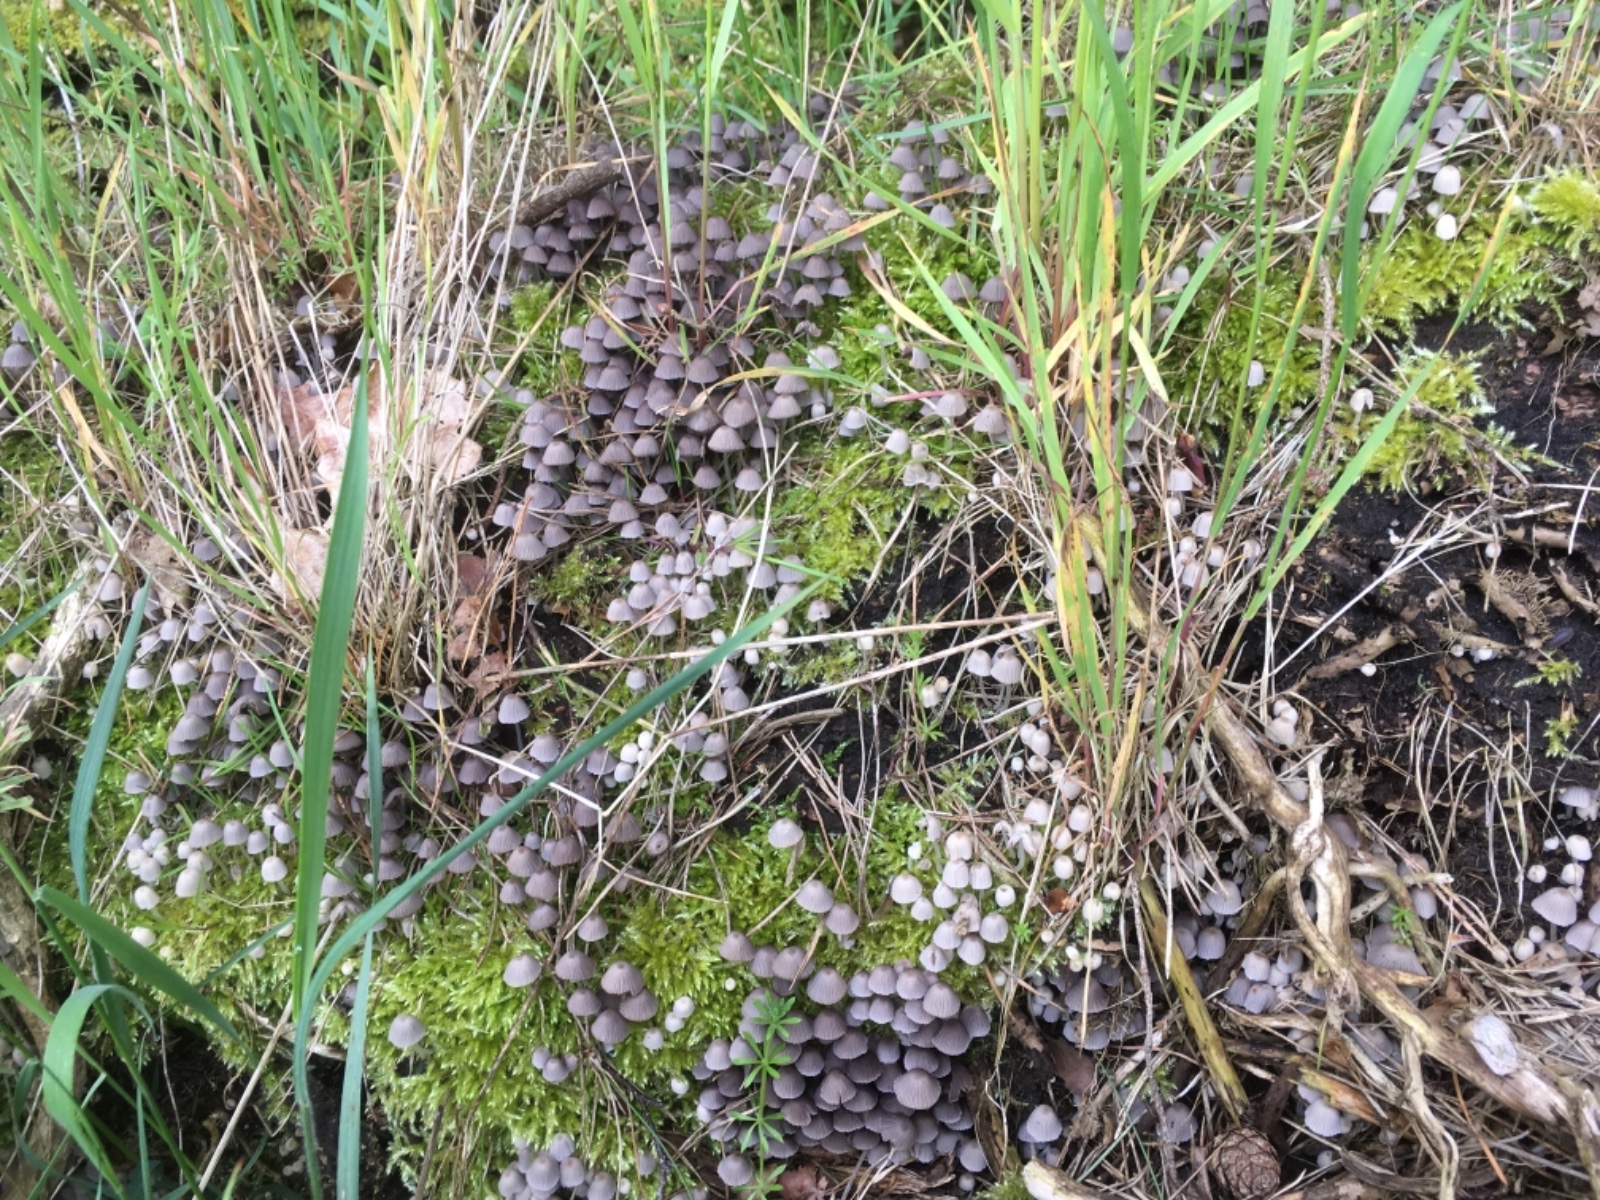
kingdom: Fungi
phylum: Basidiomycota
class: Agaricomycetes
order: Agaricales
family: Psathyrellaceae
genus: Coprinellus
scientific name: Coprinellus disseminatus
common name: bredsået blækhat
